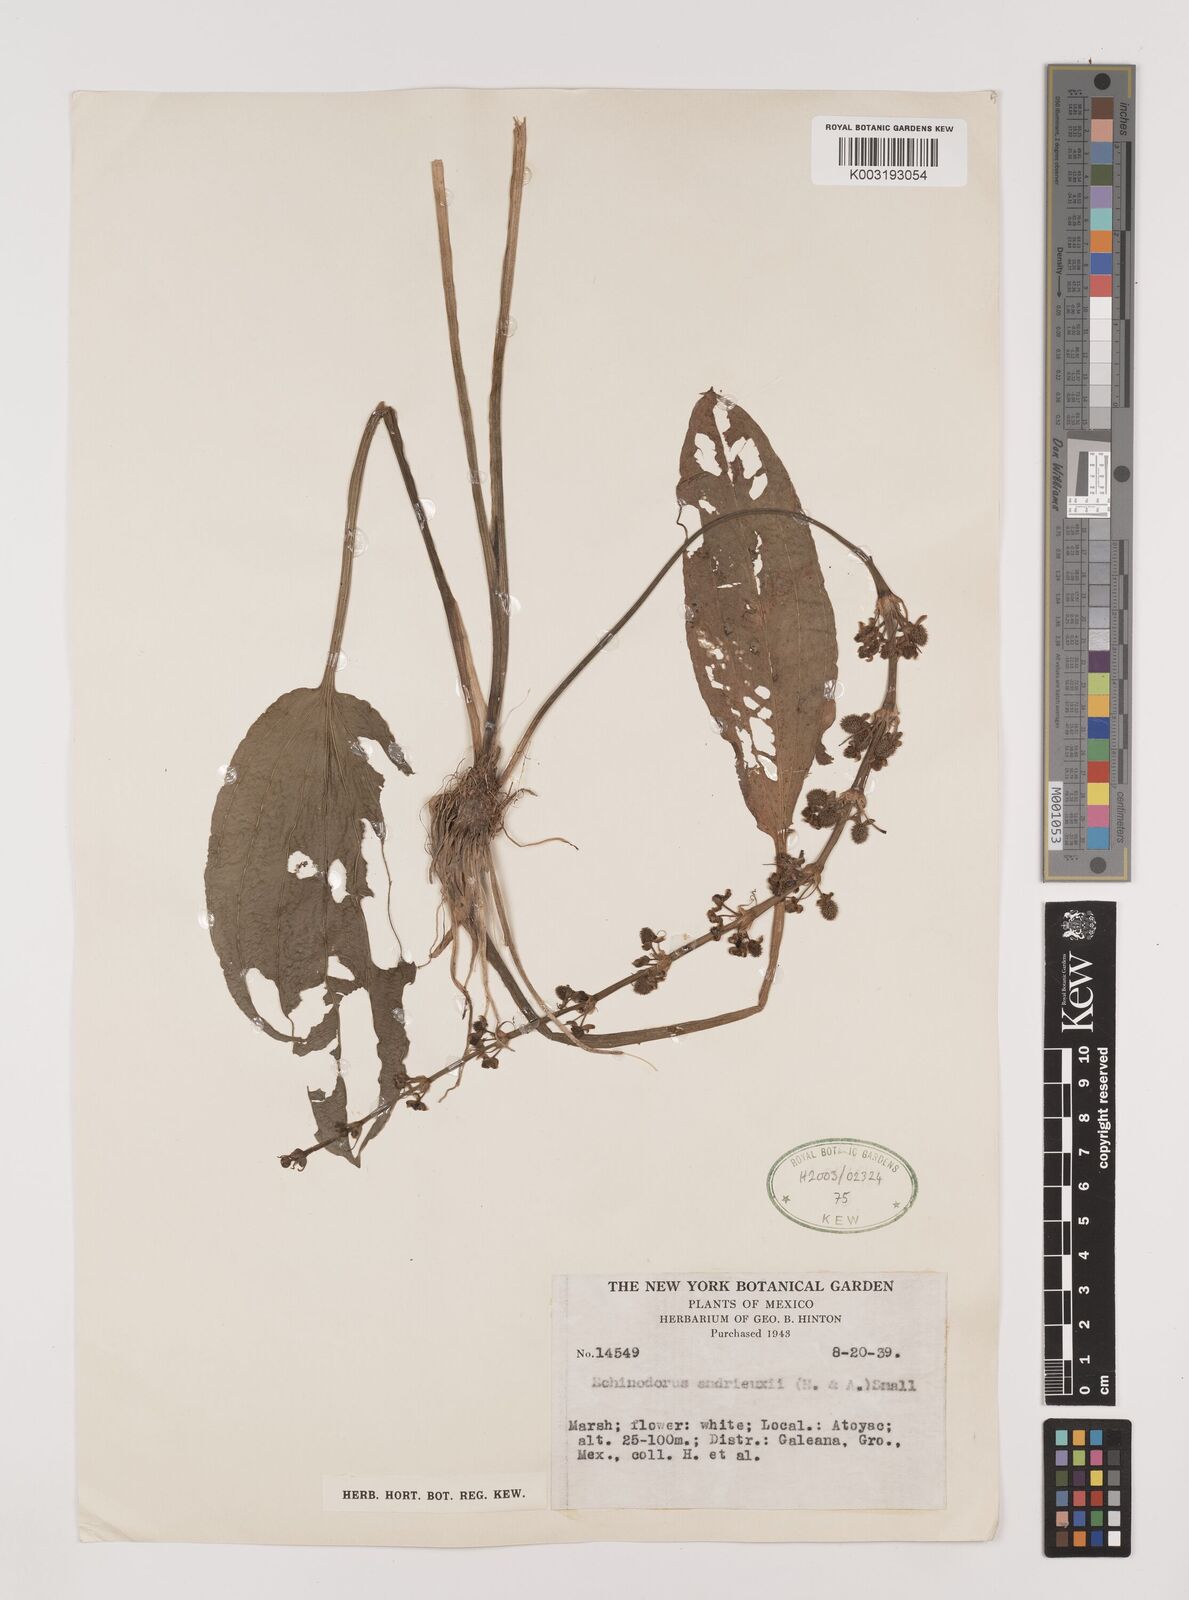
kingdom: Plantae
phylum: Tracheophyta
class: Liliopsida
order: Alismatales
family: Alismataceae
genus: Aquarius
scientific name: Aquarius subulatus
